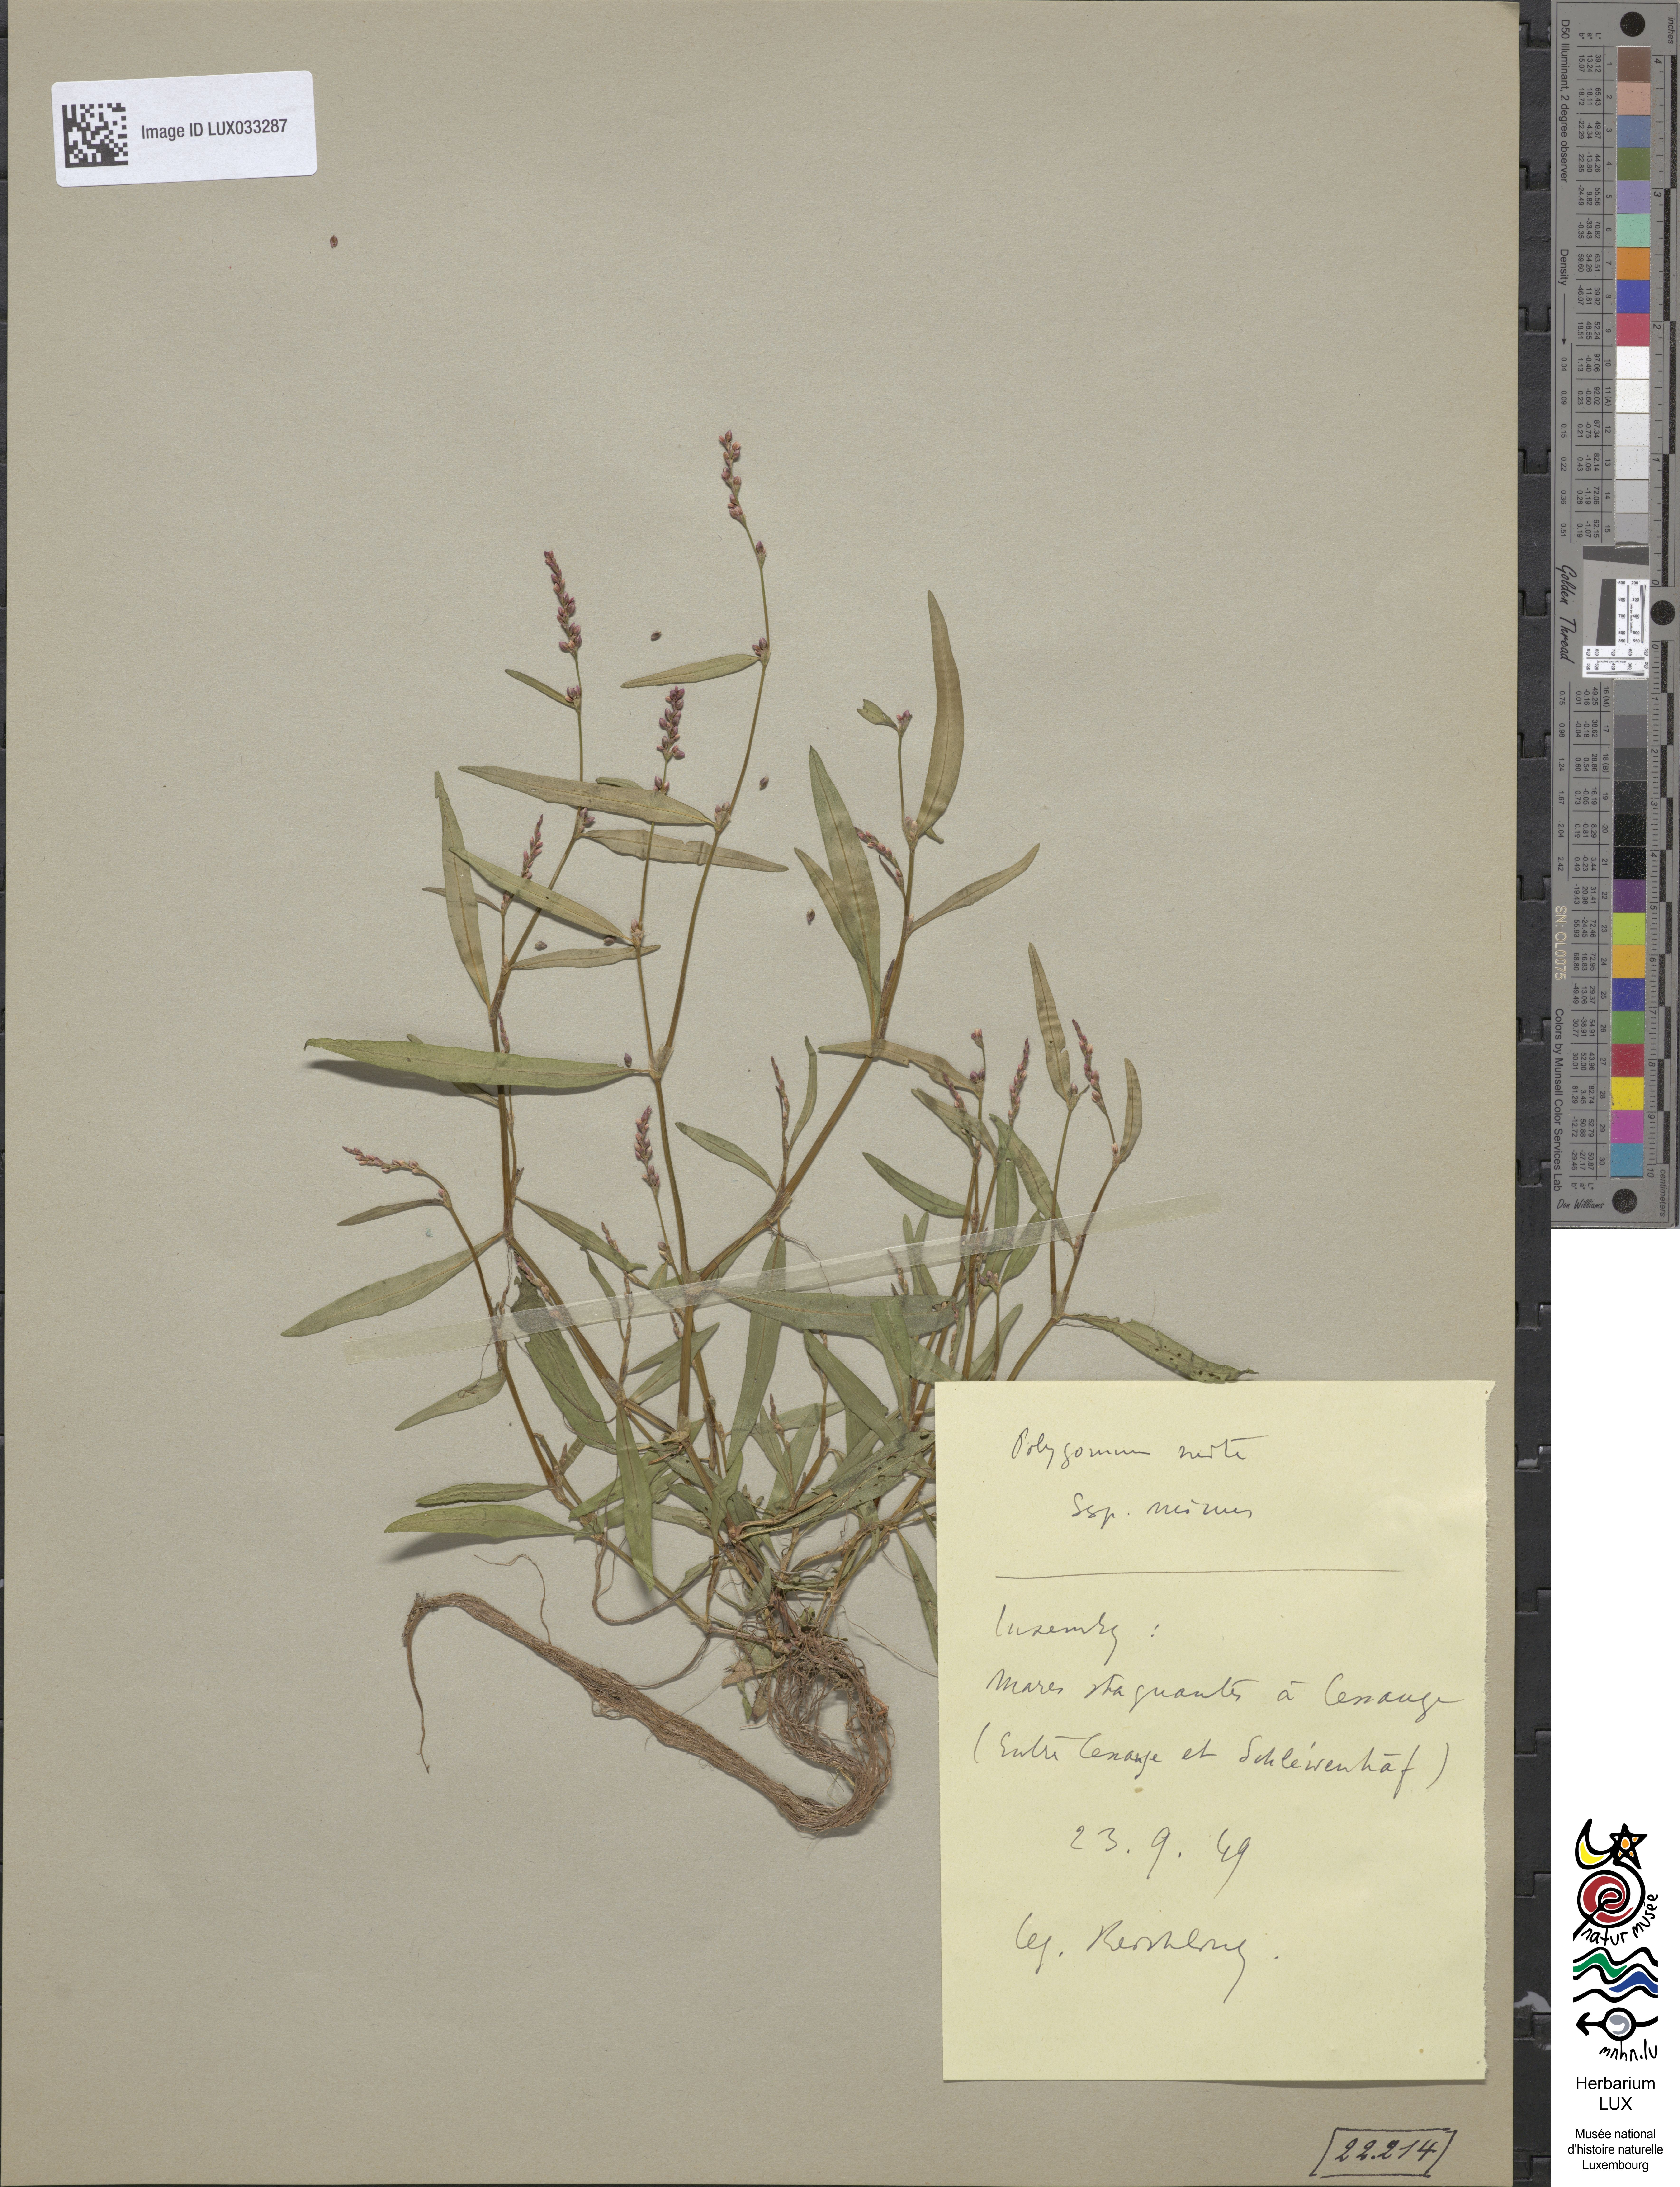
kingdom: Plantae
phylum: Tracheophyta
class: Magnoliopsida
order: Caryophyllales
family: Polygonaceae
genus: Persicaria
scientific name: Persicaria mitis
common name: Tasteless water-pepper
